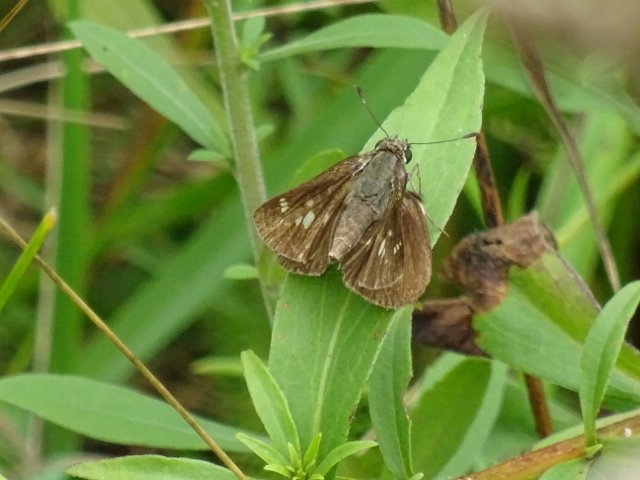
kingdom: Animalia
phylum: Arthropoda
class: Insecta
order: Lepidoptera
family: Hesperiidae
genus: Vernia
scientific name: Vernia verna
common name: Little Glassywing
